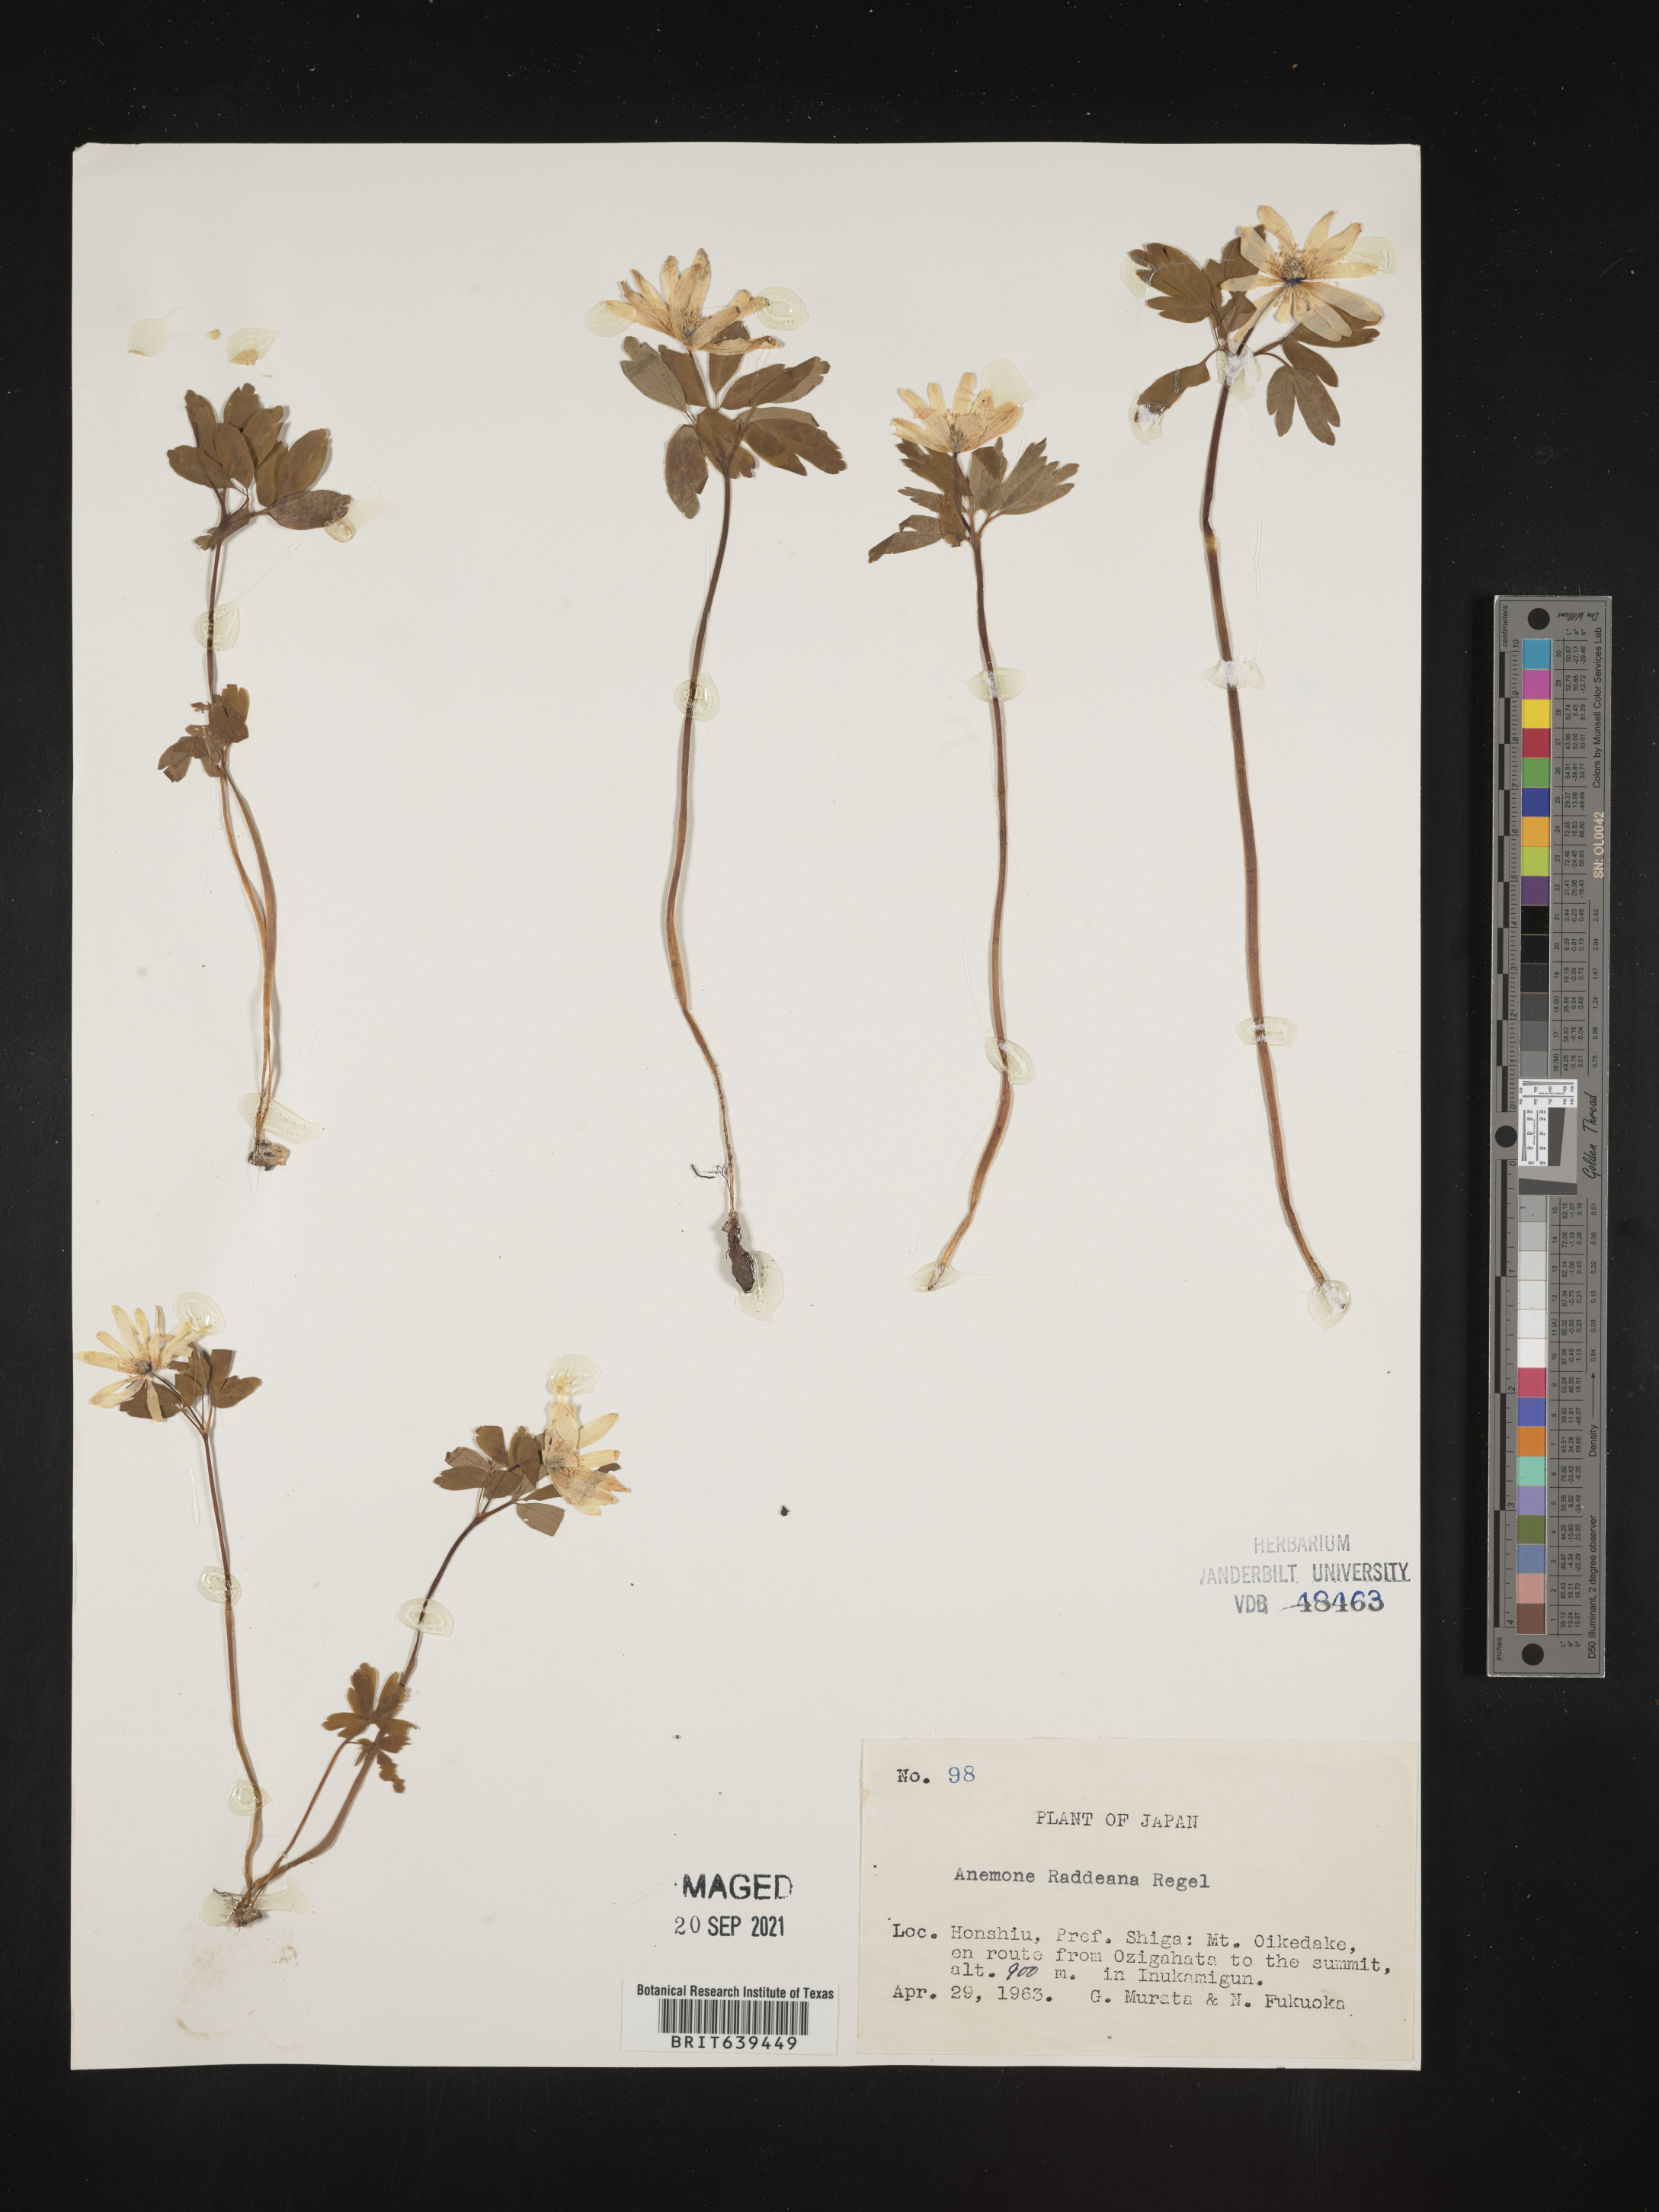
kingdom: Plantae
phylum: Tracheophyta
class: Magnoliopsida
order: Ranunculales
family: Ranunculaceae
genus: Anemone
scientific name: Anemone
